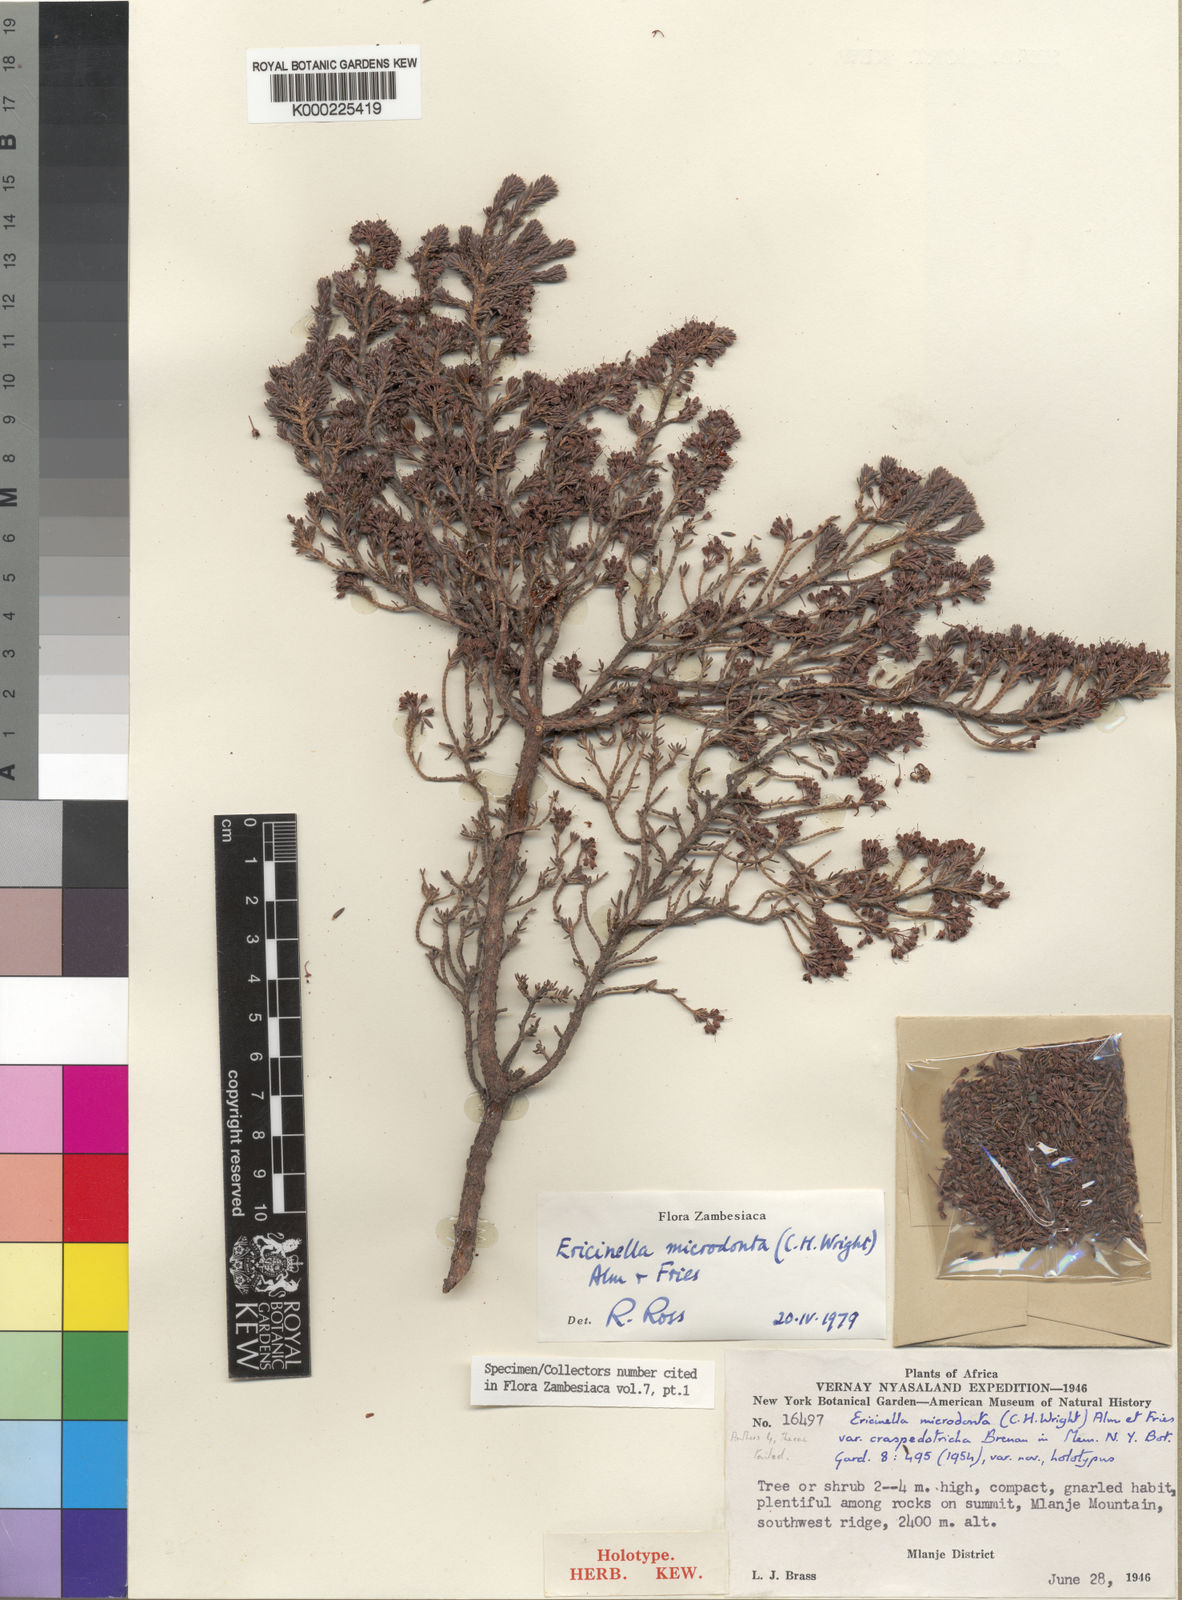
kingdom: Plantae
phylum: Tracheophyta
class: Magnoliopsida
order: Ericales
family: Ericaceae
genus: Erica
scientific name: Erica microdonta
